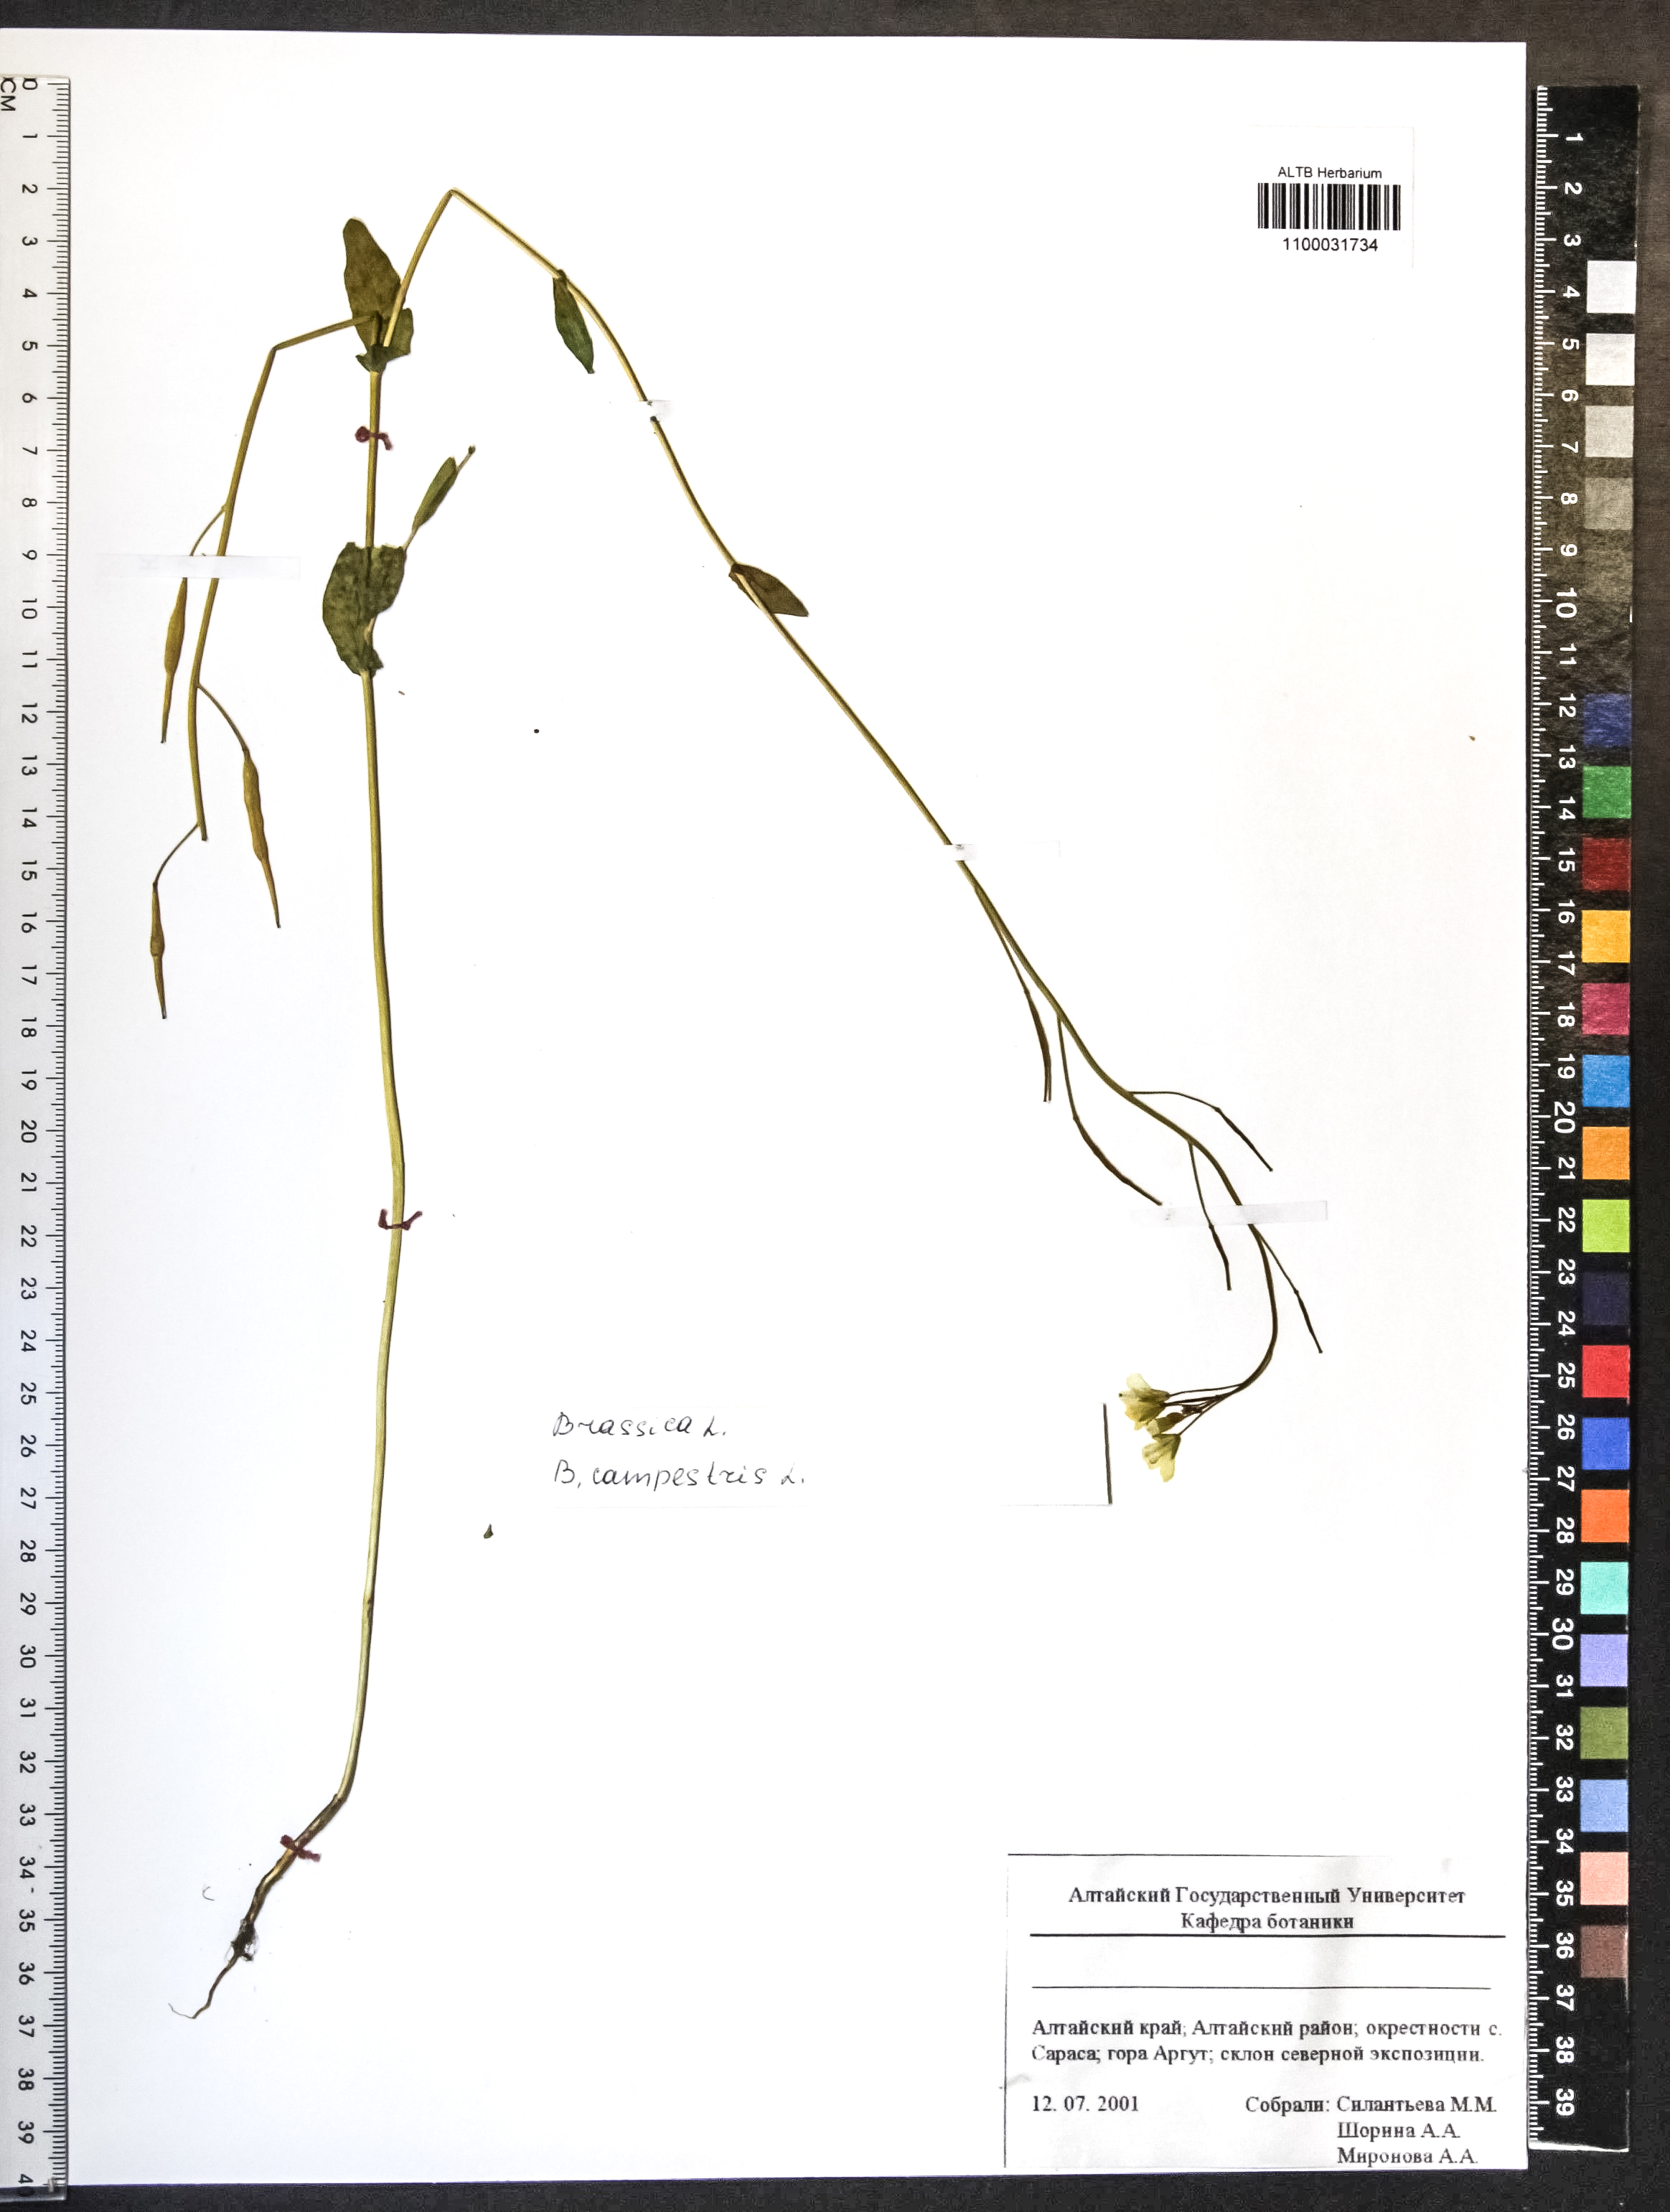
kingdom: Plantae
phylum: Tracheophyta
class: Magnoliopsida
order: Brassicales
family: Brassicaceae
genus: Brassica
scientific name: Brassica rapa
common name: Field mustard
